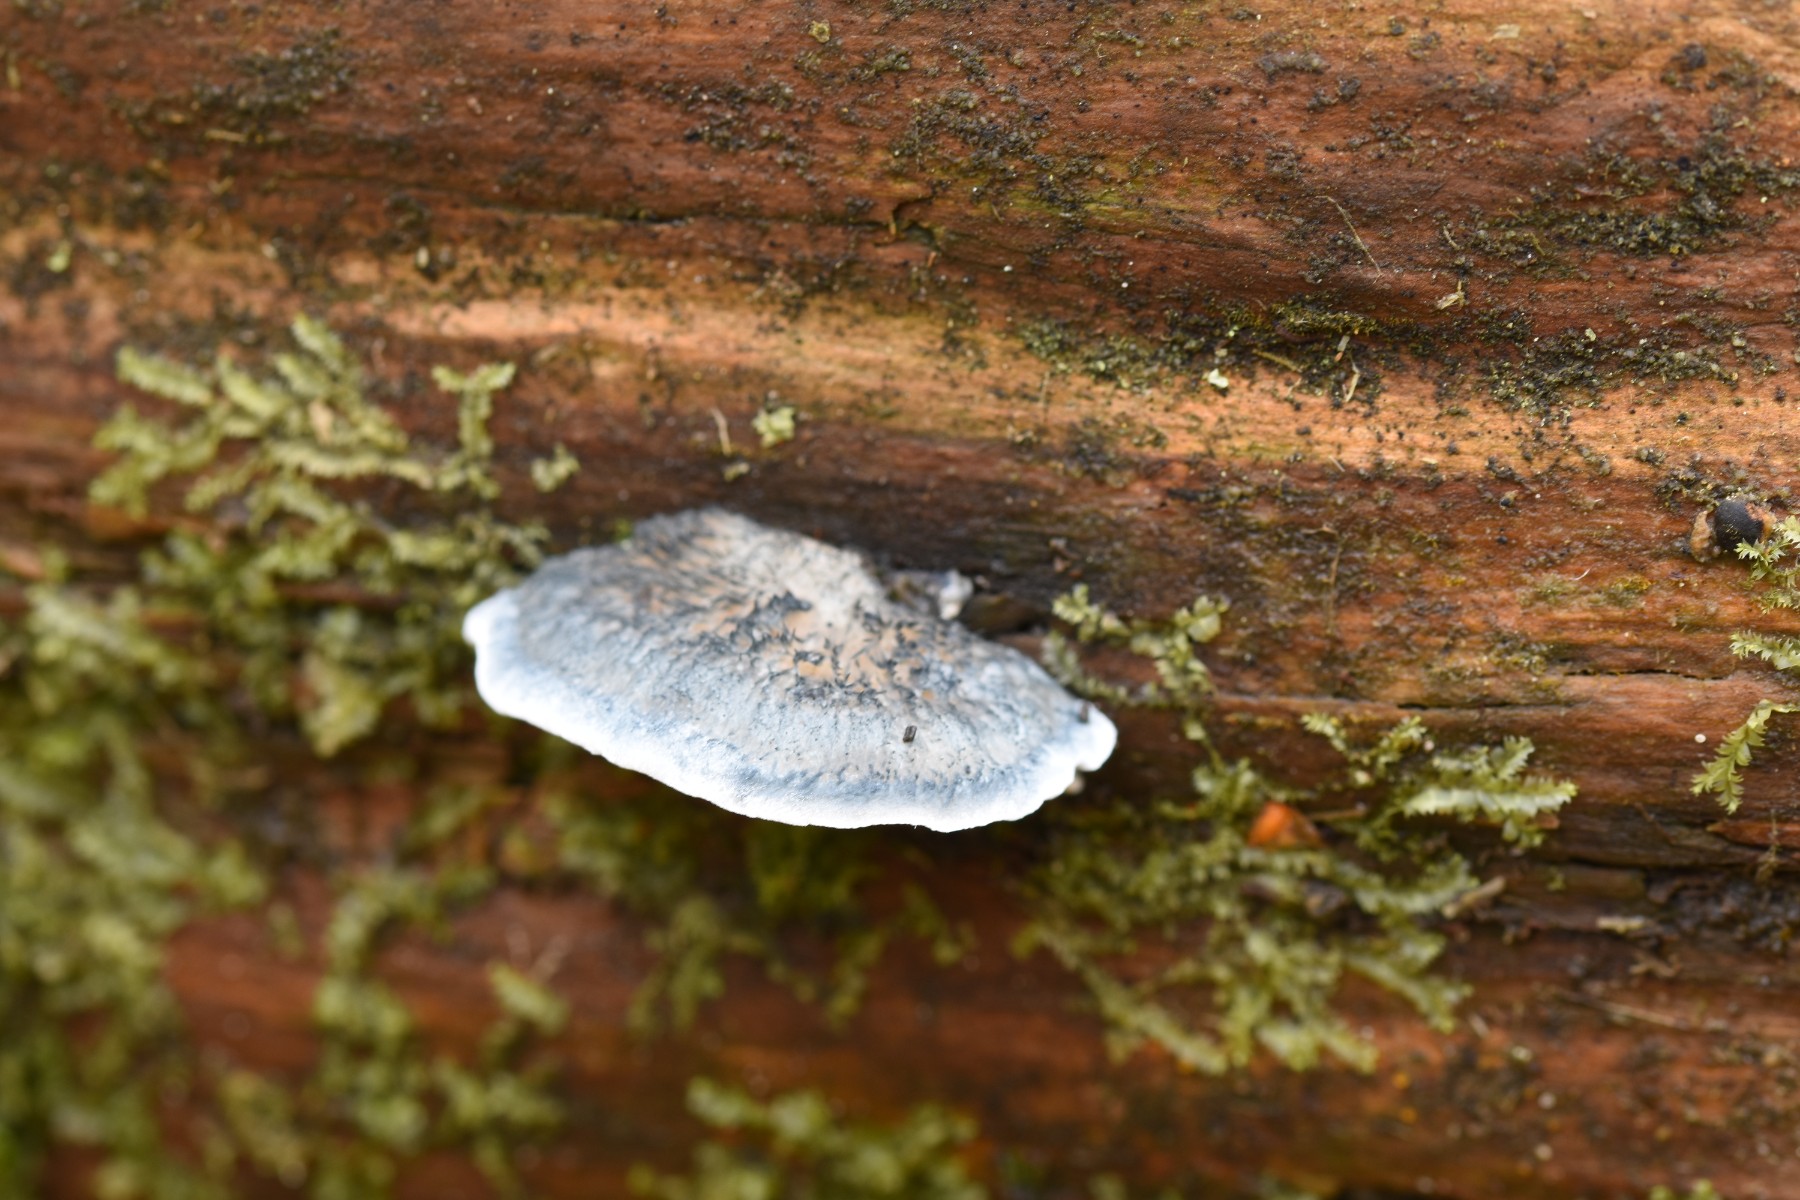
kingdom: Fungi
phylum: Basidiomycota
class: Agaricomycetes
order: Polyporales
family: Polyporaceae
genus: Cyanosporus
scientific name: Cyanosporus caesius
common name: blålig kødporesvamp
